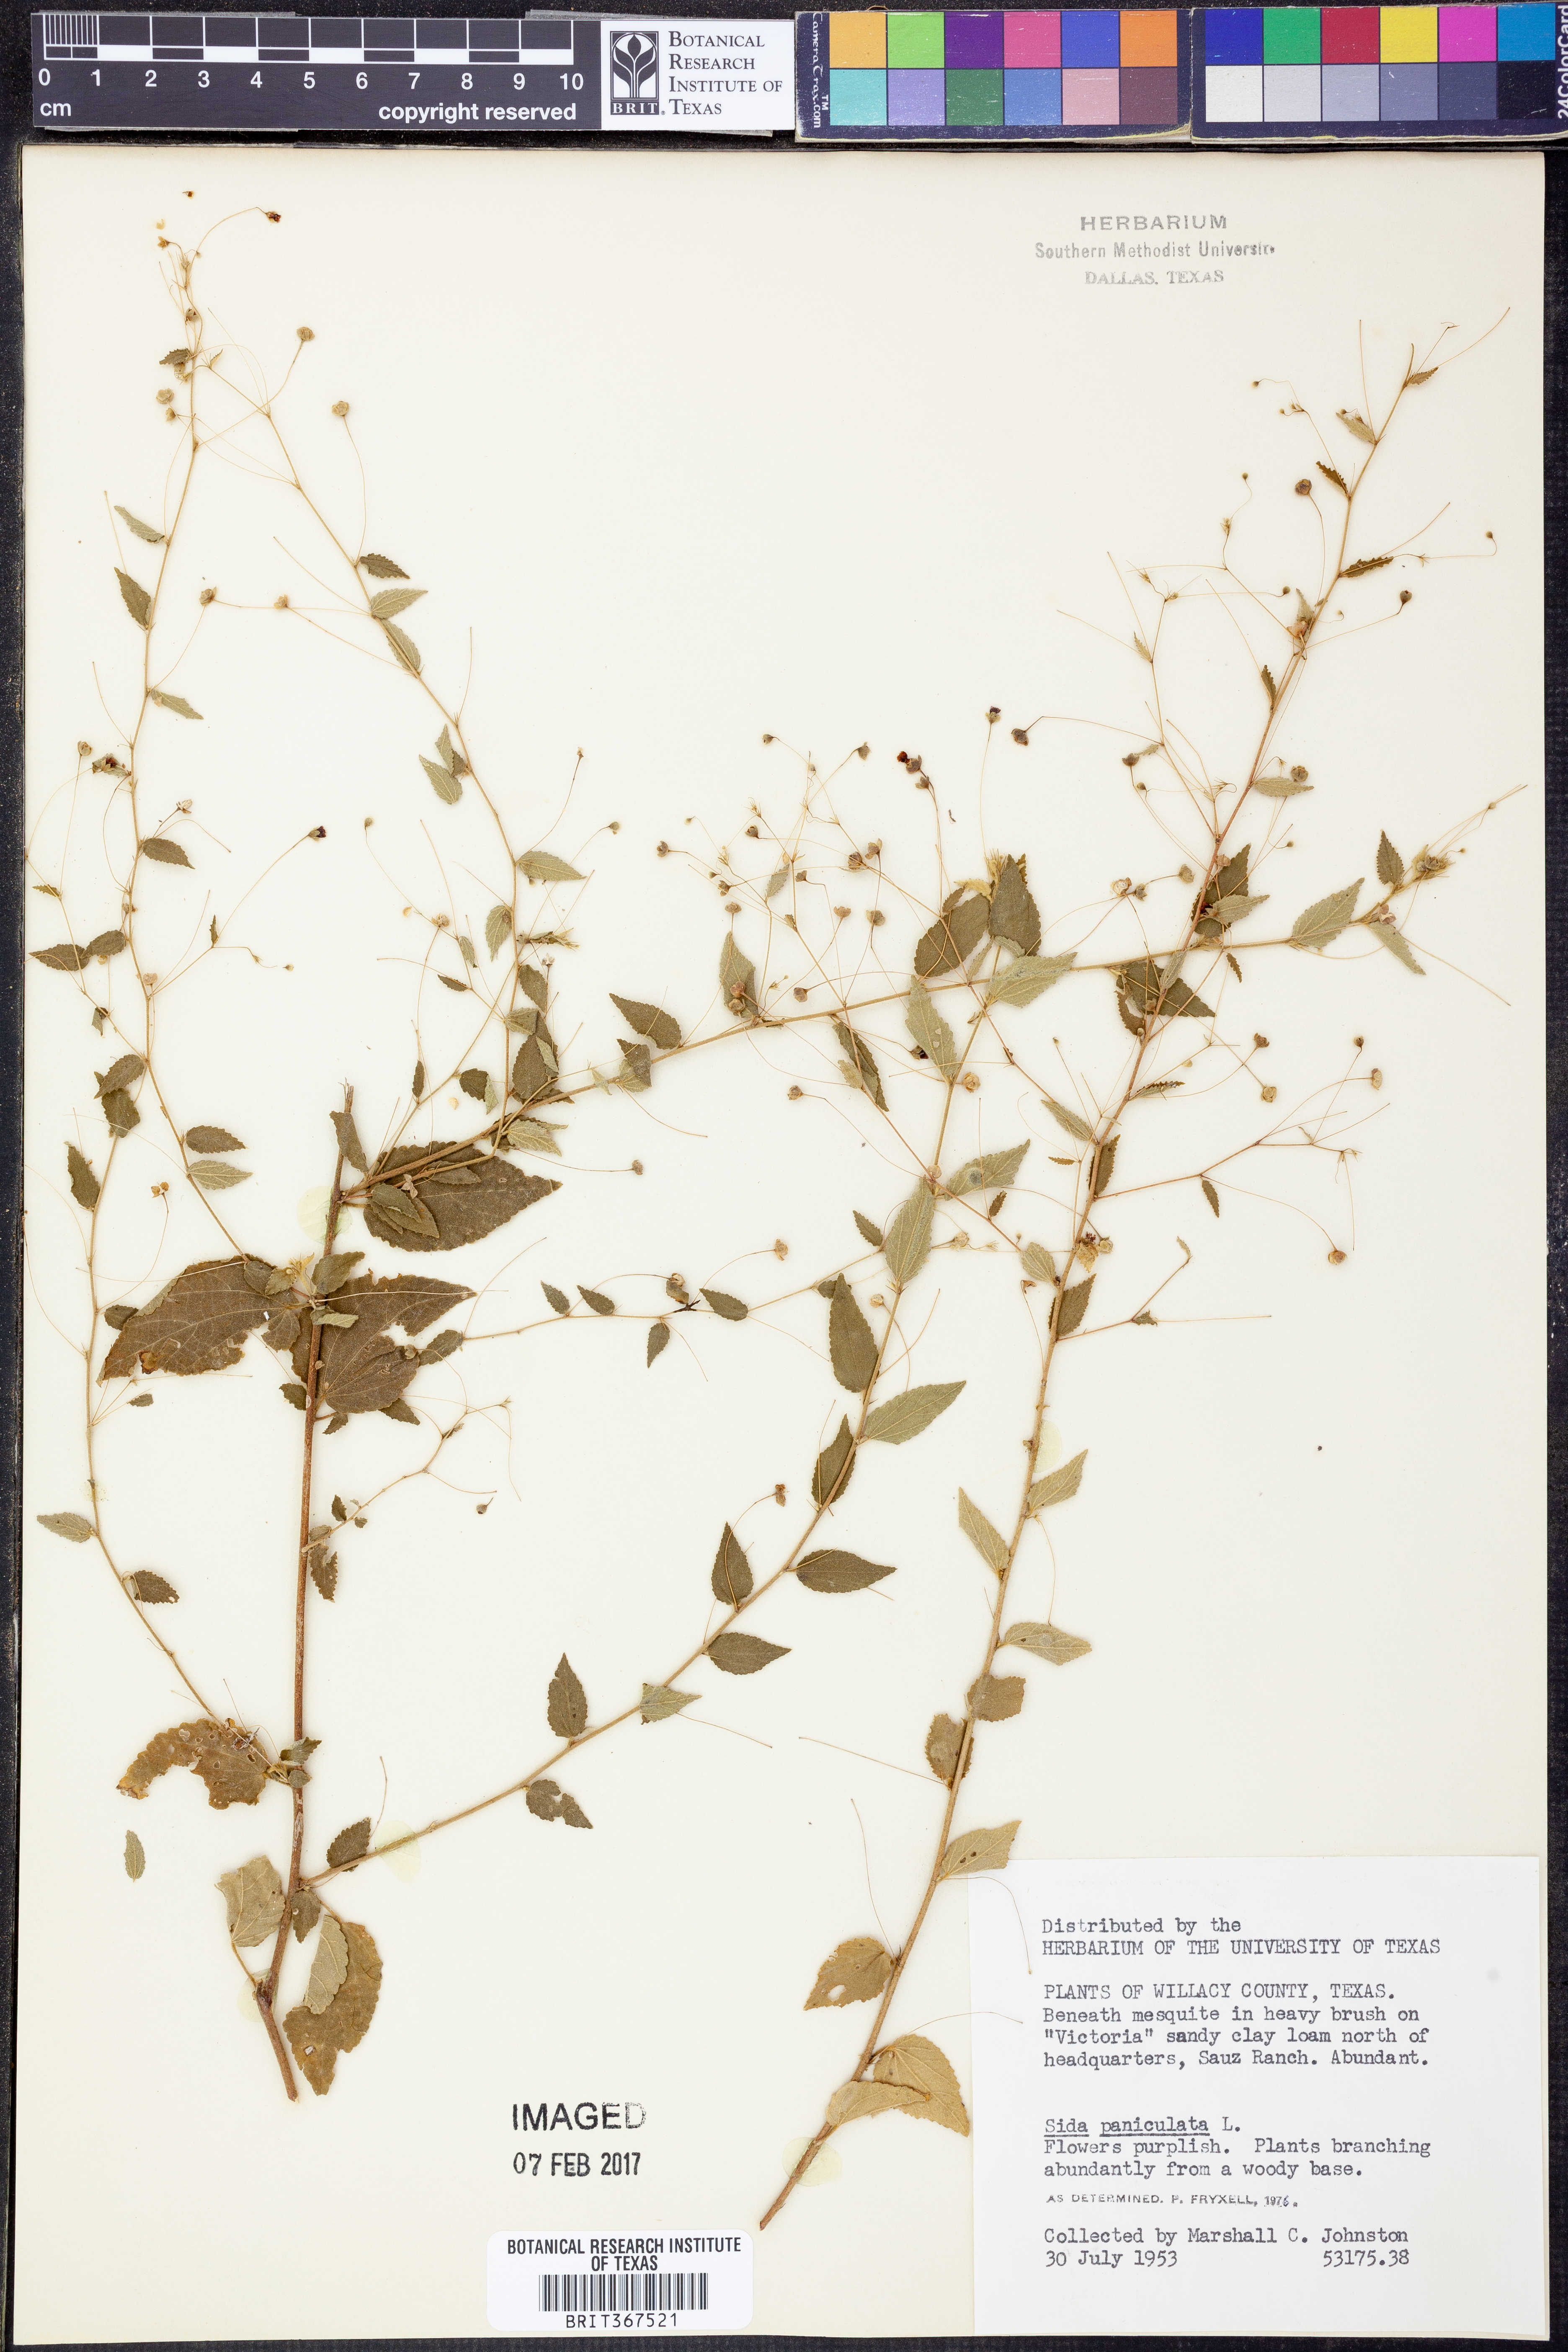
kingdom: Plantae
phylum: Tracheophyta
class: Magnoliopsida
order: Malvales
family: Malvaceae
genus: Sidastrum
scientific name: Sidastrum paniculatum
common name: Panicled sandmallow
